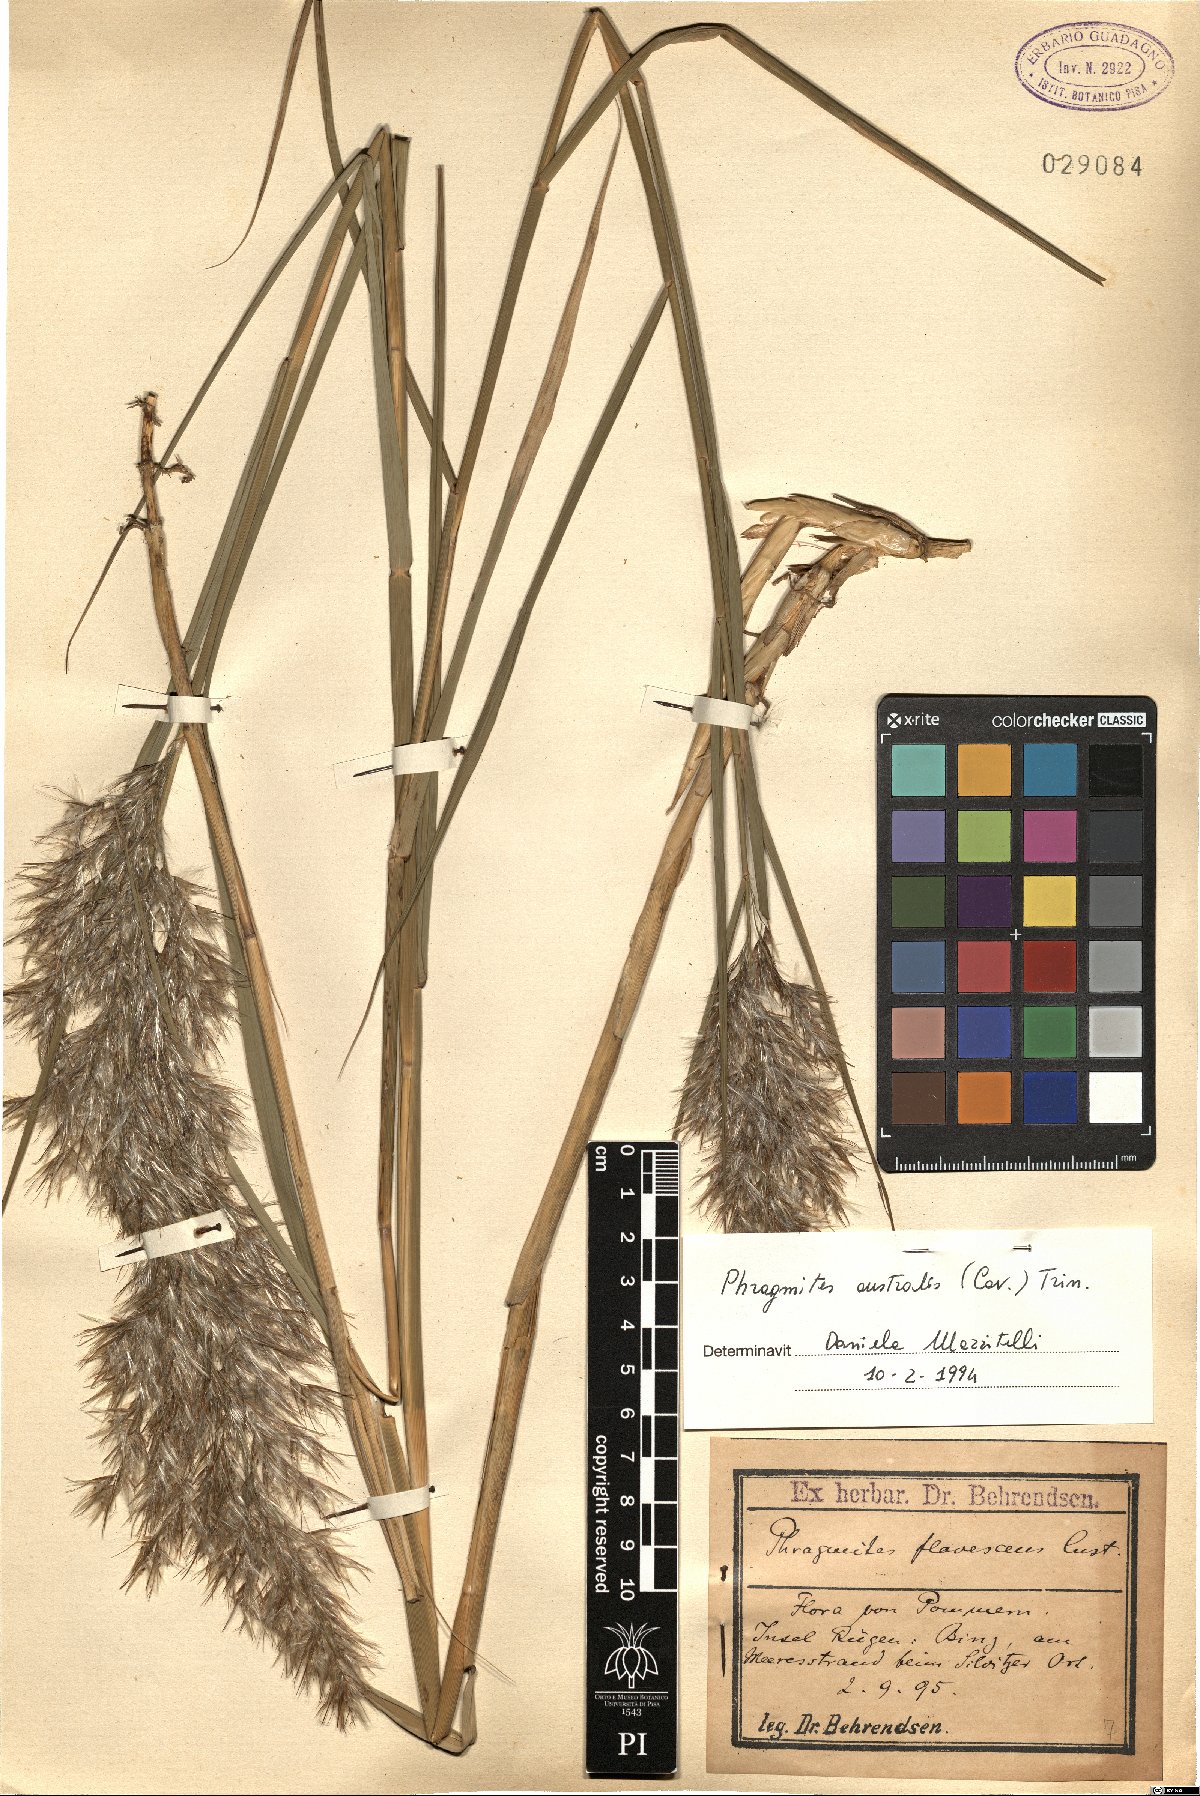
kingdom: Plantae
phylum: Tracheophyta
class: Liliopsida
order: Poales
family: Poaceae
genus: Phragmites
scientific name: Phragmites australis
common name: Common reed
